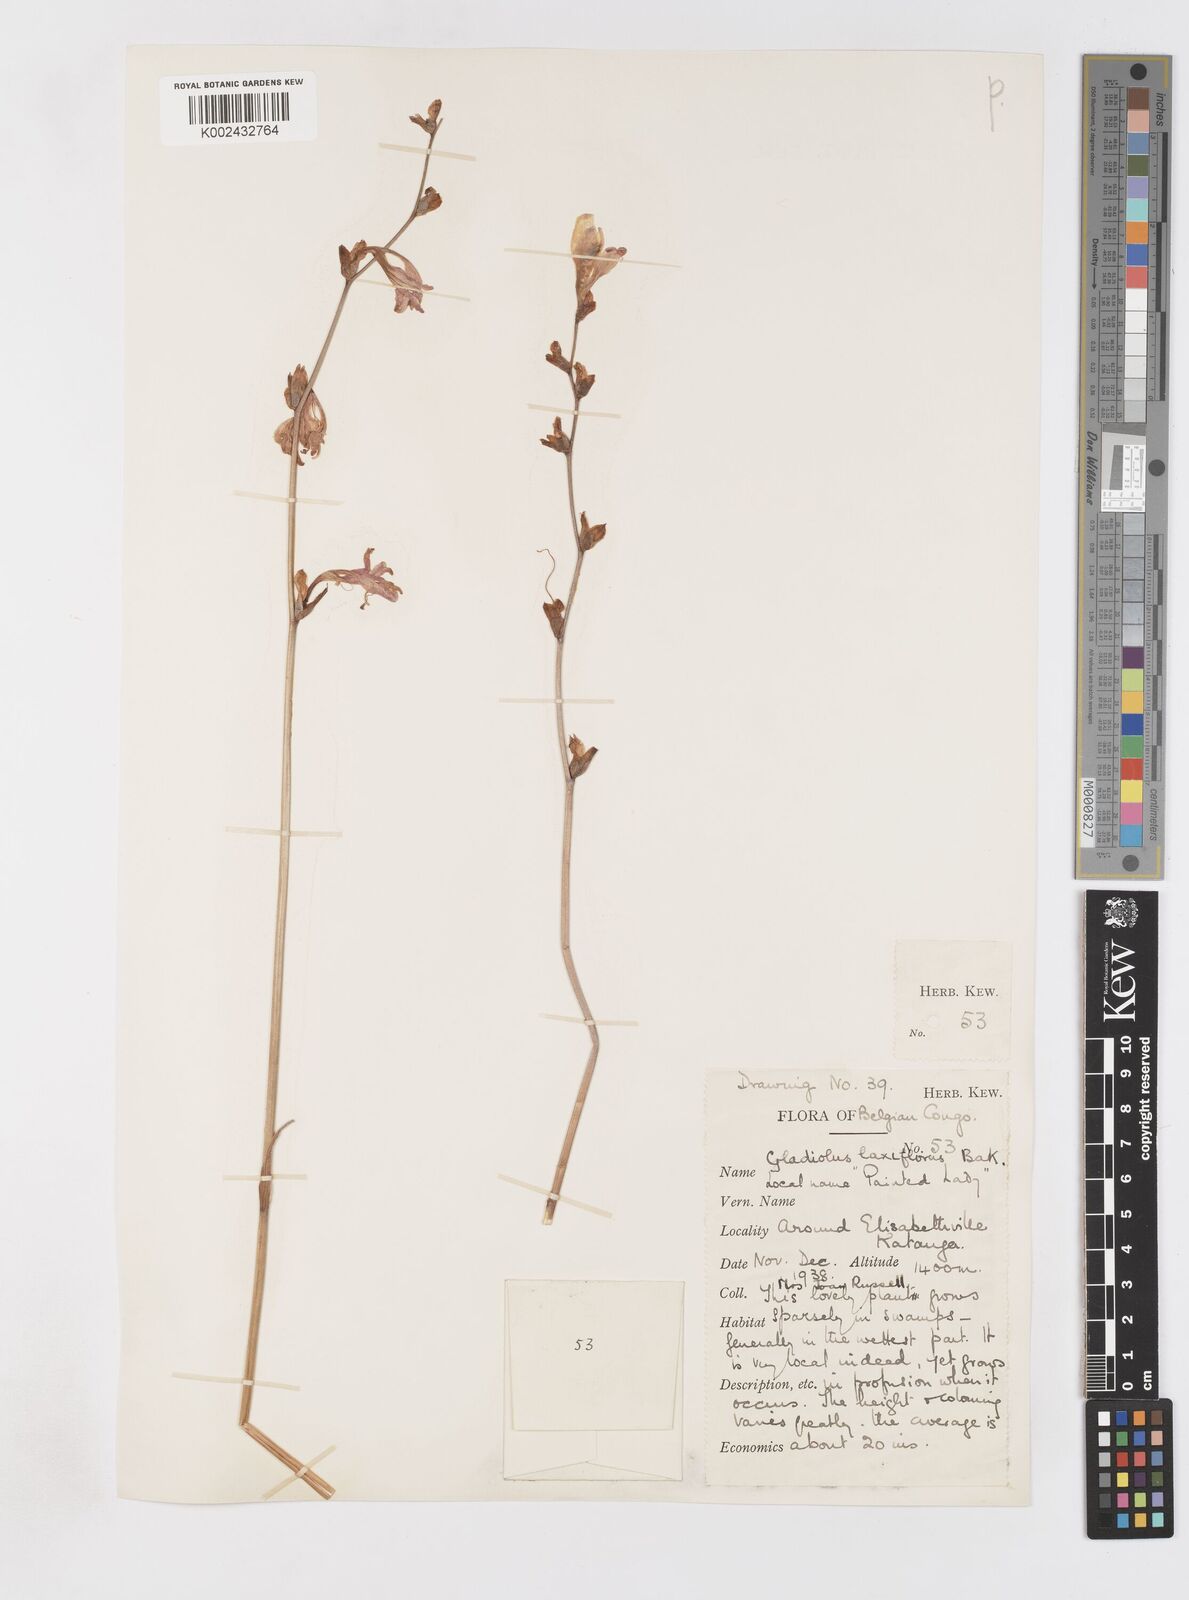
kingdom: Plantae
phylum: Tracheophyta
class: Liliopsida
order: Asparagales
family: Iridaceae
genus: Gladiolus
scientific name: Gladiolus laxiflorus
